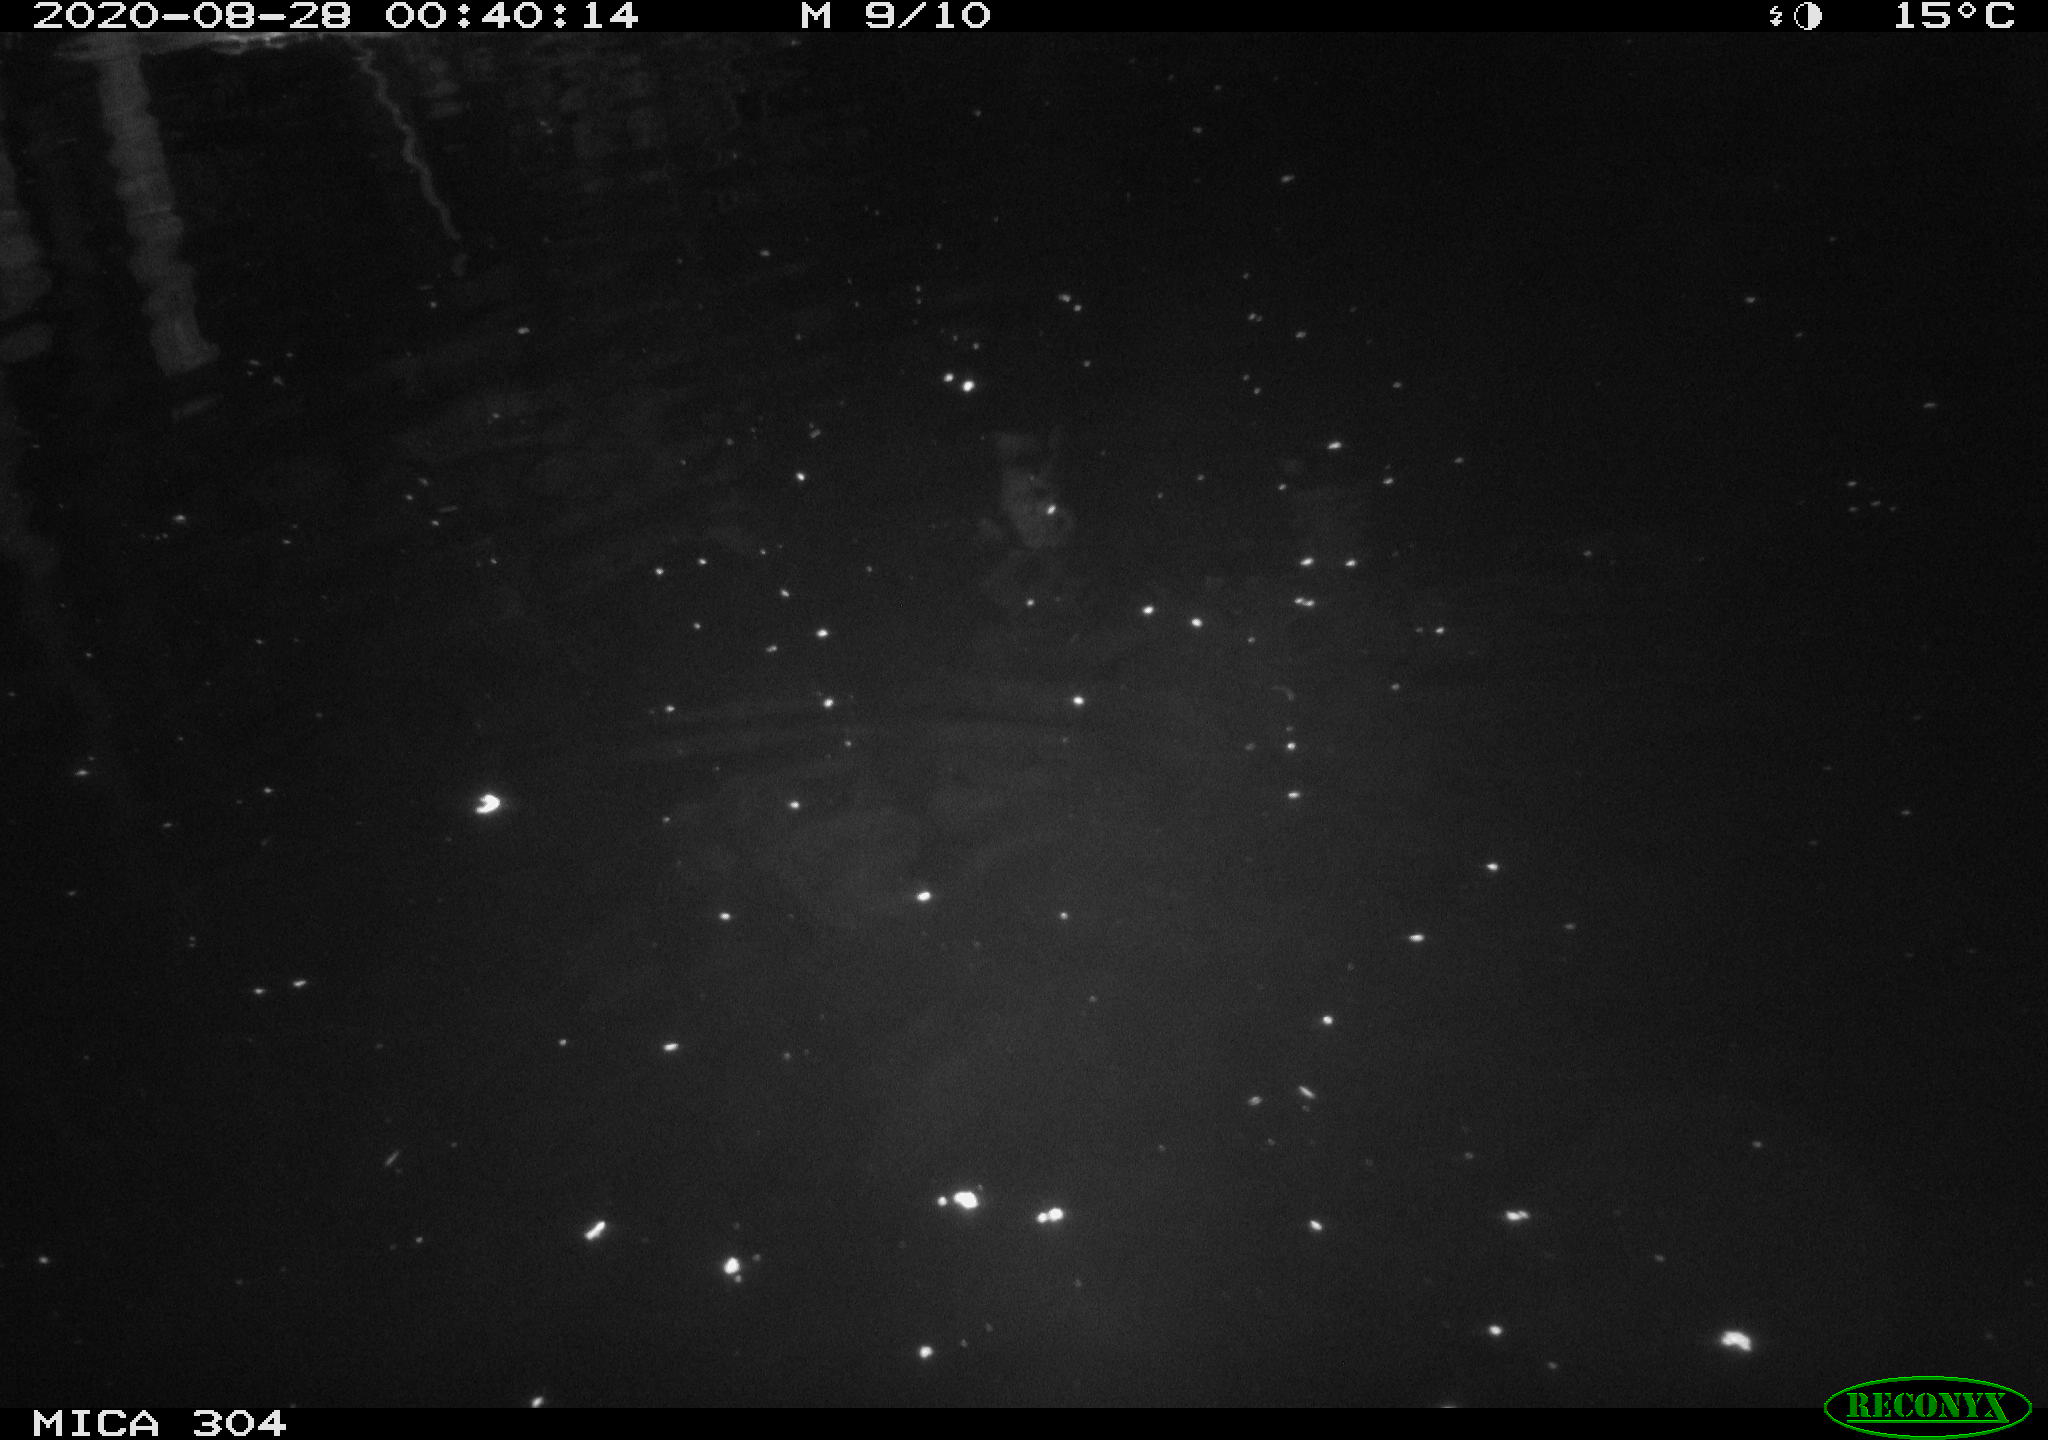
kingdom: Animalia
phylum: Chordata
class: Mammalia
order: Rodentia
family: Cricetidae
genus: Ondatra
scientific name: Ondatra zibethicus
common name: Muskrat
